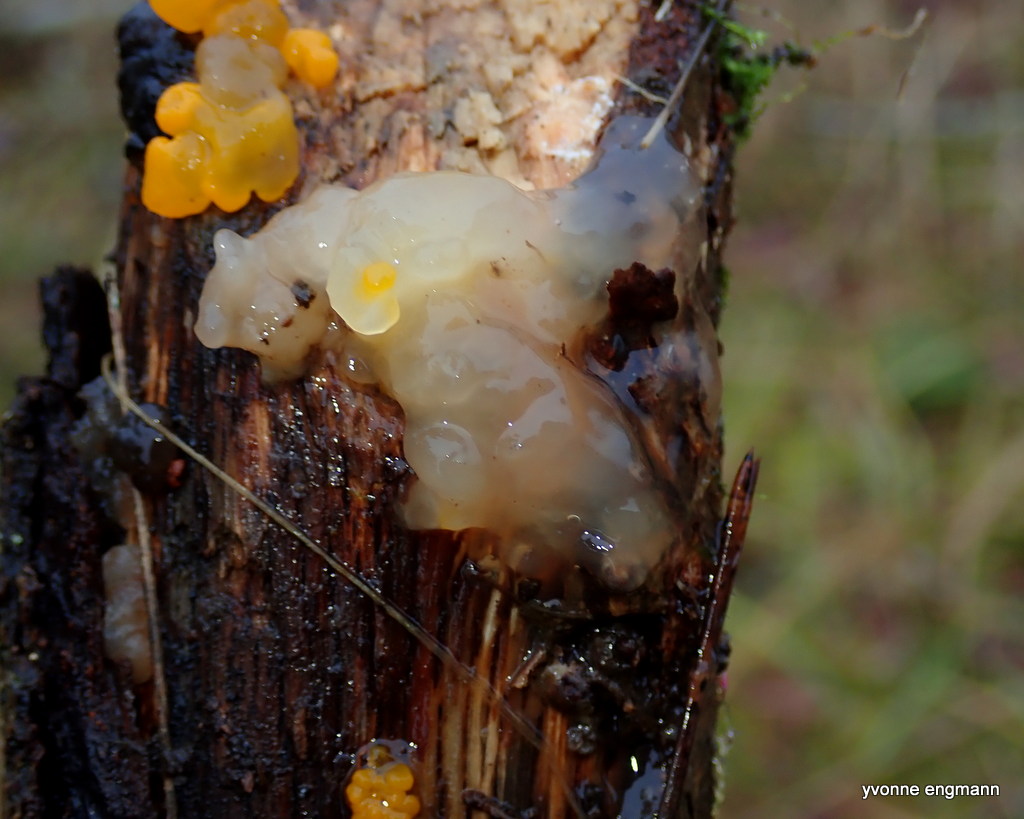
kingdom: Fungi
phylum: Basidiomycota
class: Agaricomycetes
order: Auriculariales
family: Hyaloriaceae
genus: Myxarium
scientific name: Myxarium nucleatum
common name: klar bævretop
